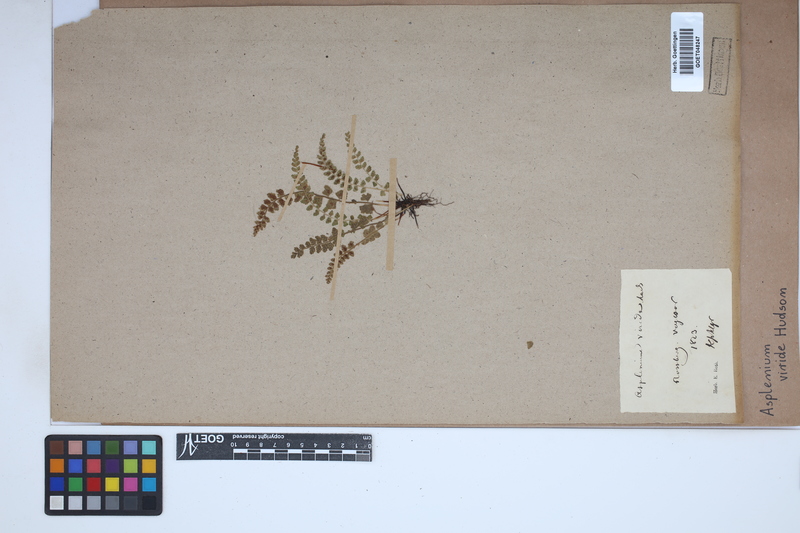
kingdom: Plantae
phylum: Tracheophyta
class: Polypodiopsida
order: Polypodiales
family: Aspleniaceae
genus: Asplenium
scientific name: Asplenium viride
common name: Green spleenwort
